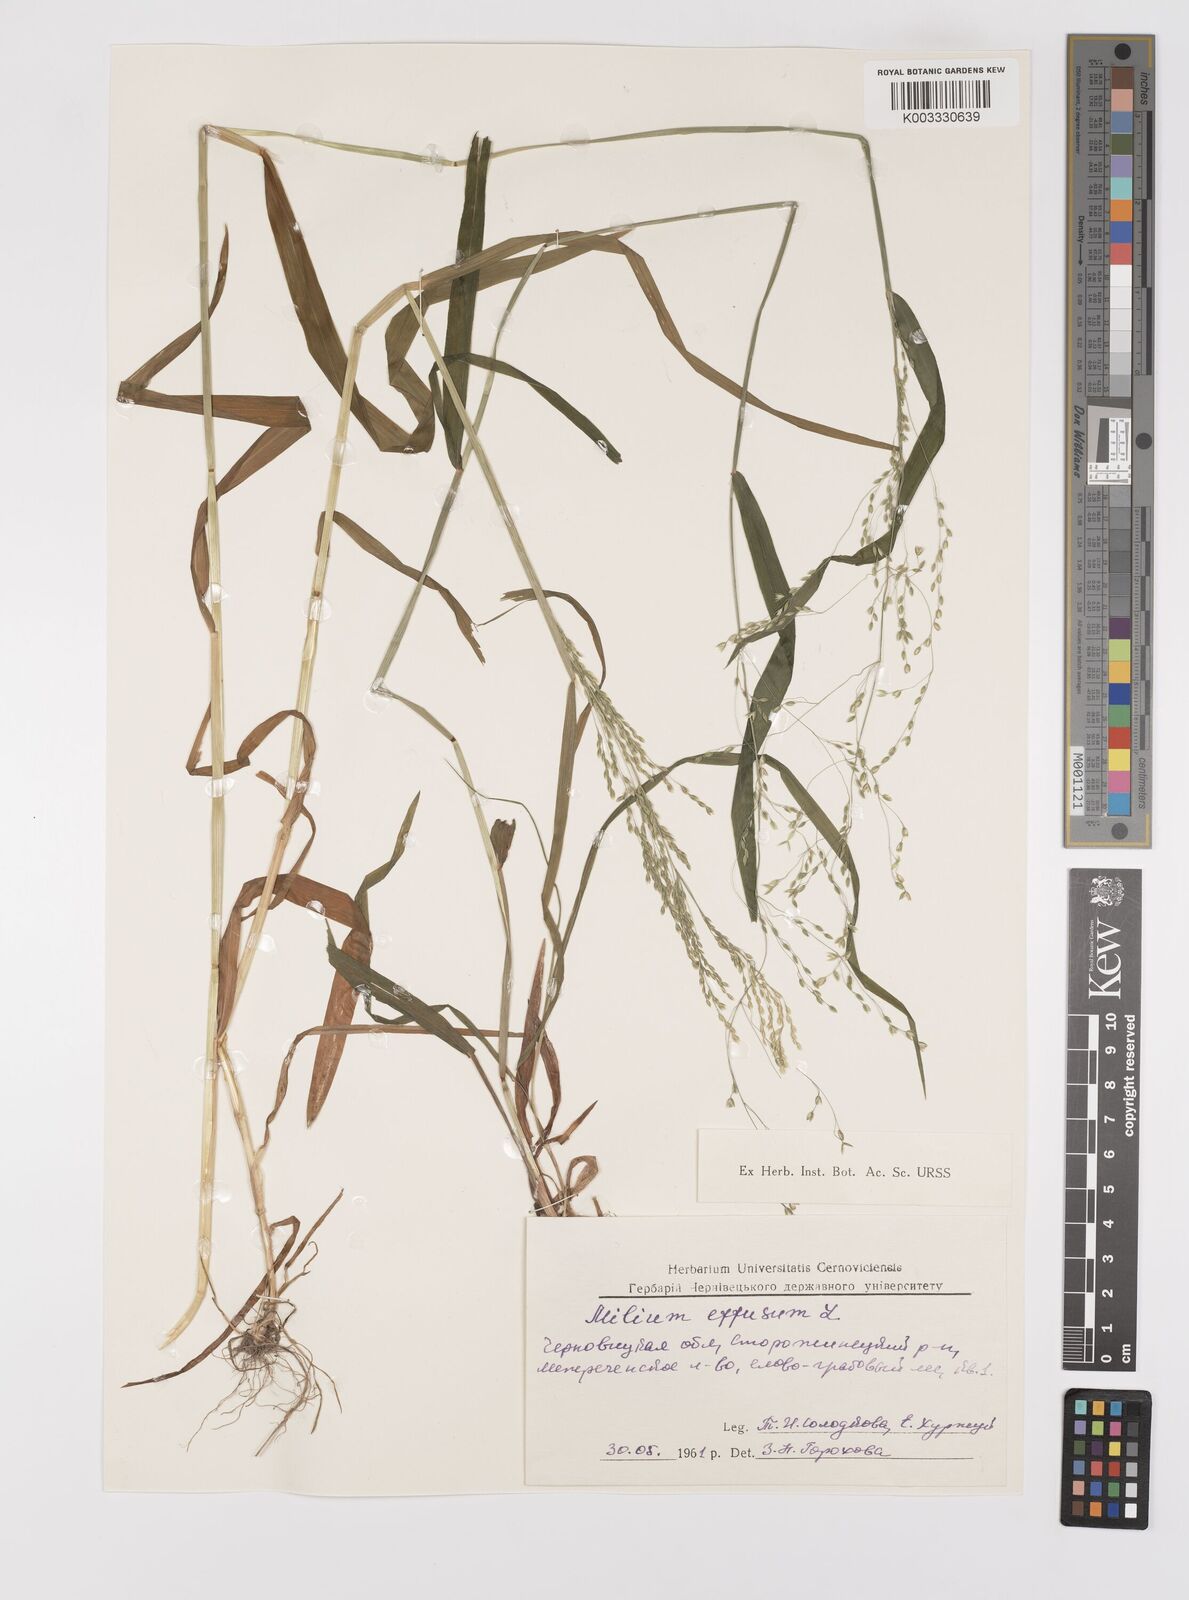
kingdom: Plantae
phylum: Tracheophyta
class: Liliopsida
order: Poales
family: Poaceae
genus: Milium
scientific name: Milium effusum
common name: Wood millet
